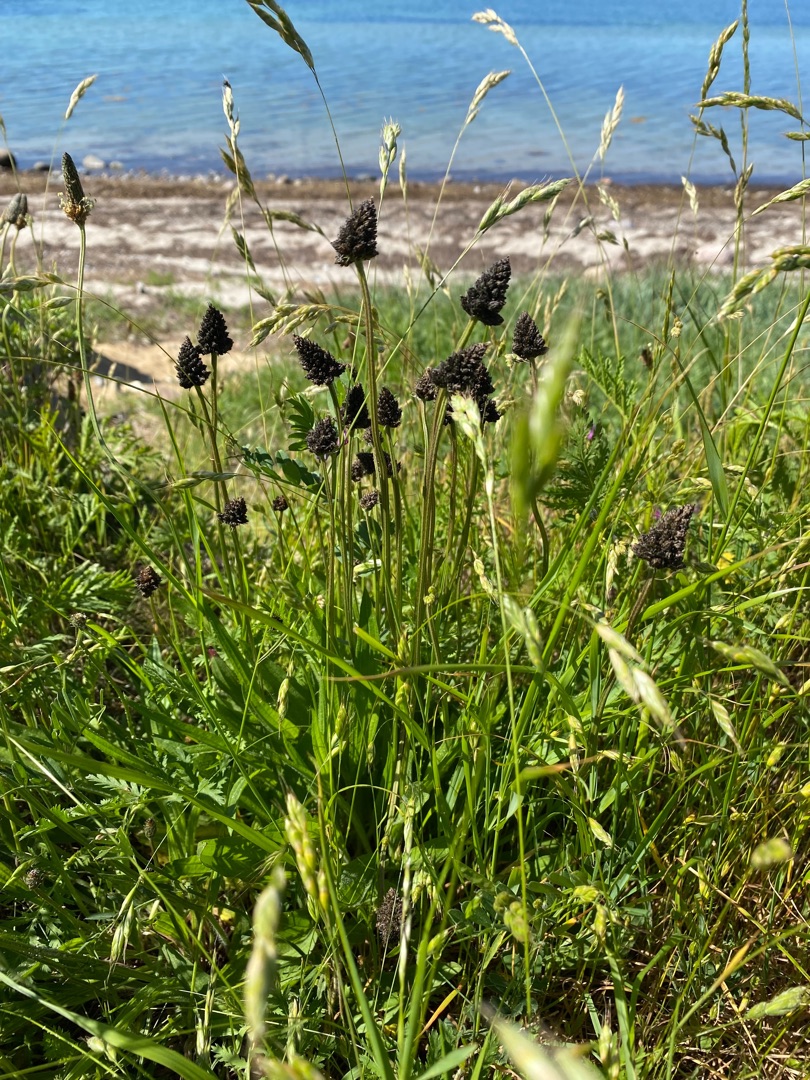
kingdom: Plantae
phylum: Tracheophyta
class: Magnoliopsida
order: Lamiales
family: Plantaginaceae
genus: Plantago
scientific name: Plantago lanceolata
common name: Lancet-vejbred
